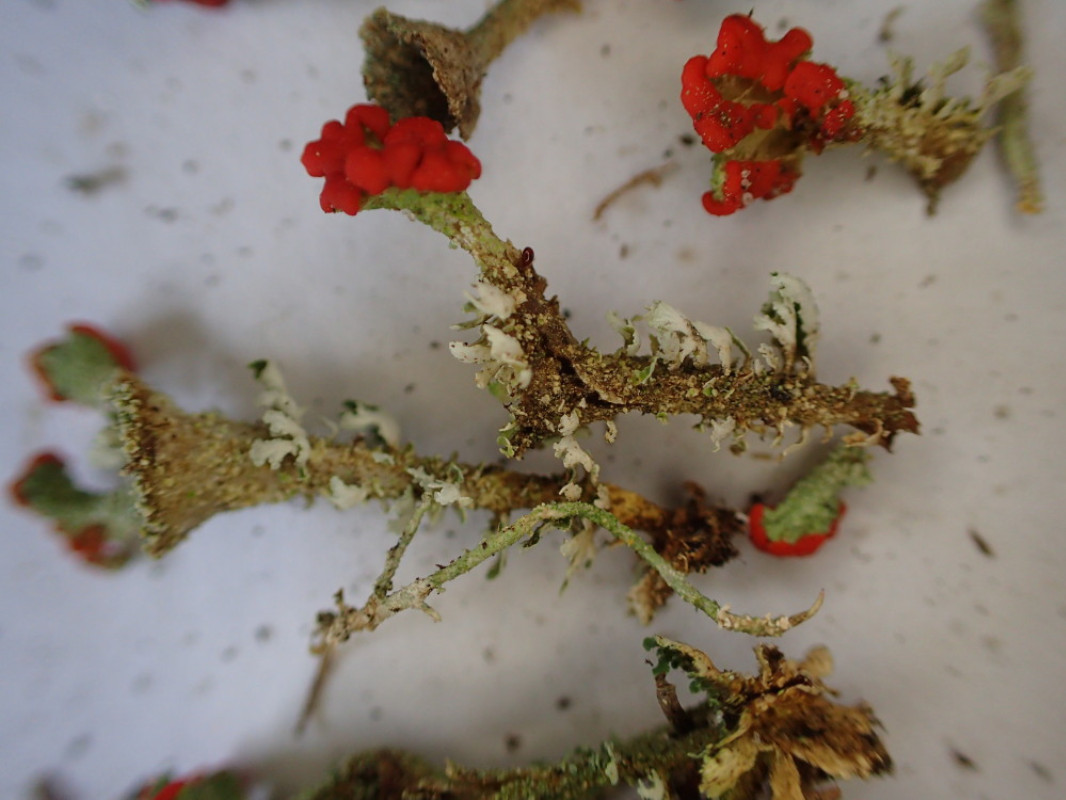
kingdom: Fungi
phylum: Ascomycota
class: Lecanoromycetes
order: Lecanorales
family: Cladoniaceae
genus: Cladonia
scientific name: Cladonia diversa
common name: rød bægerlav
